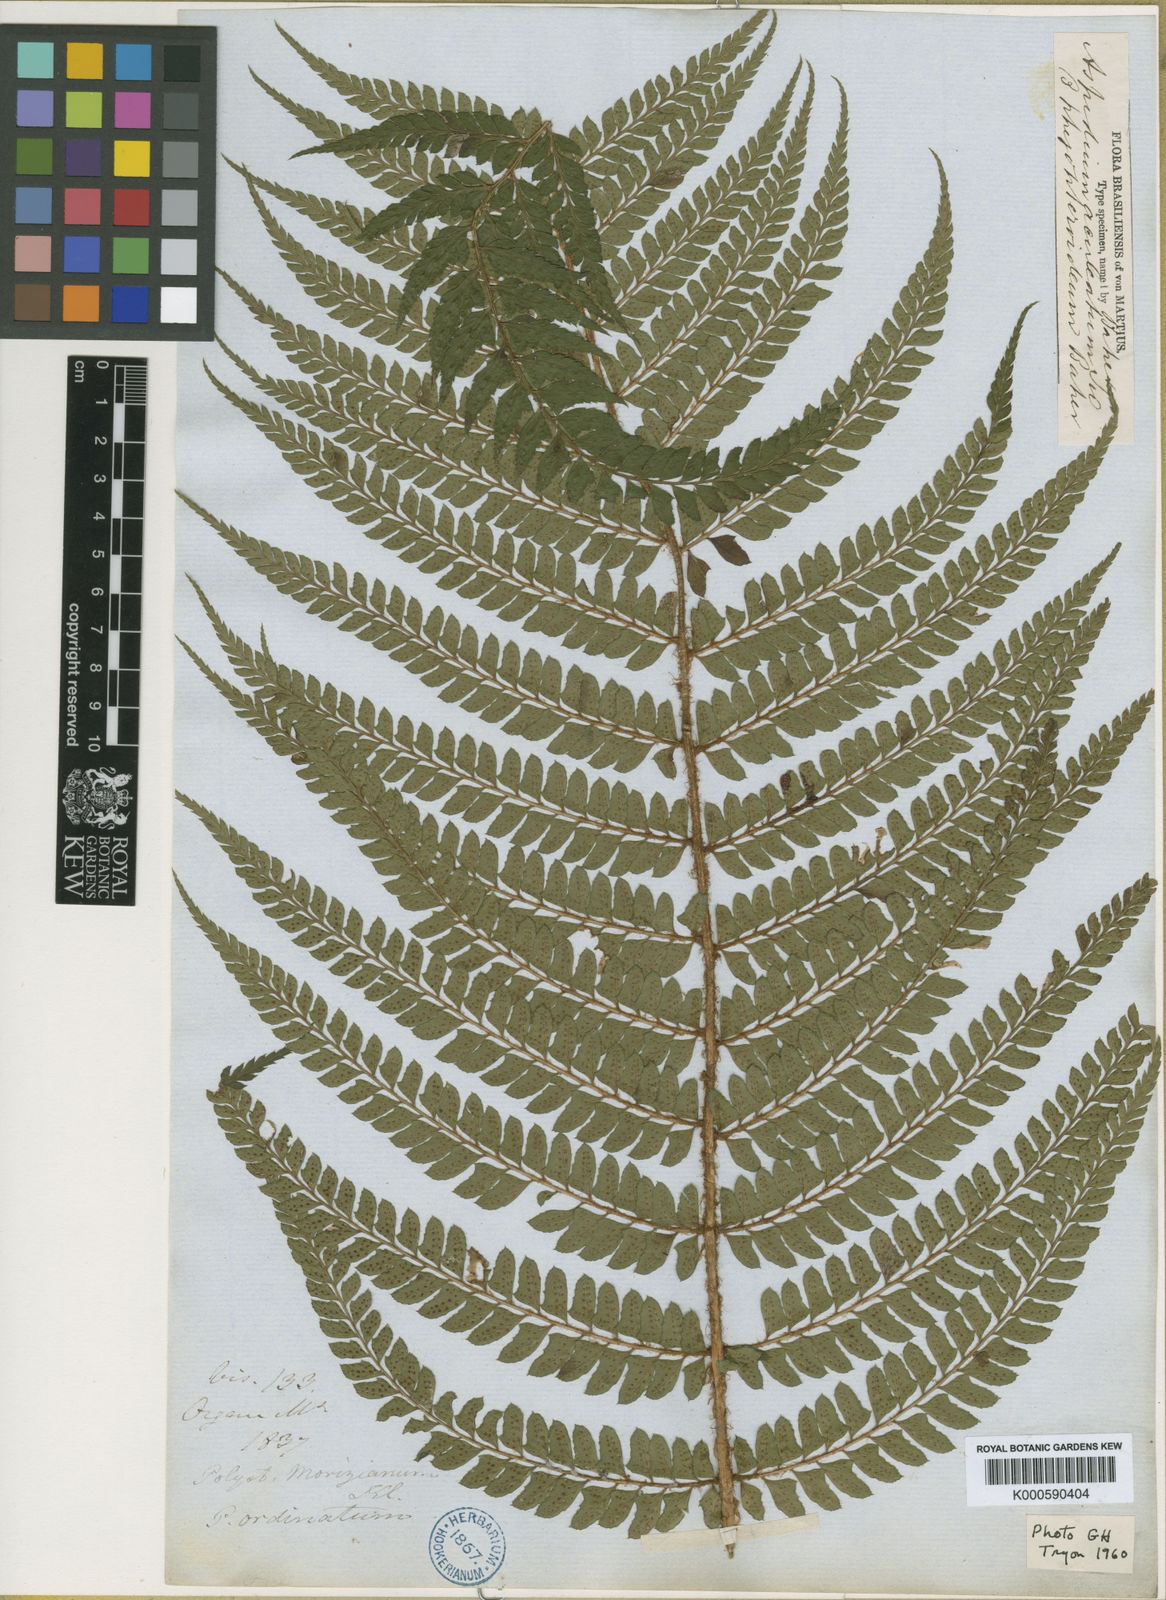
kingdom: Plantae
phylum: Tracheophyta
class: Polypodiopsida
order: Polypodiales
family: Dryopteridaceae
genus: Polystichum
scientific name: Polystichum
